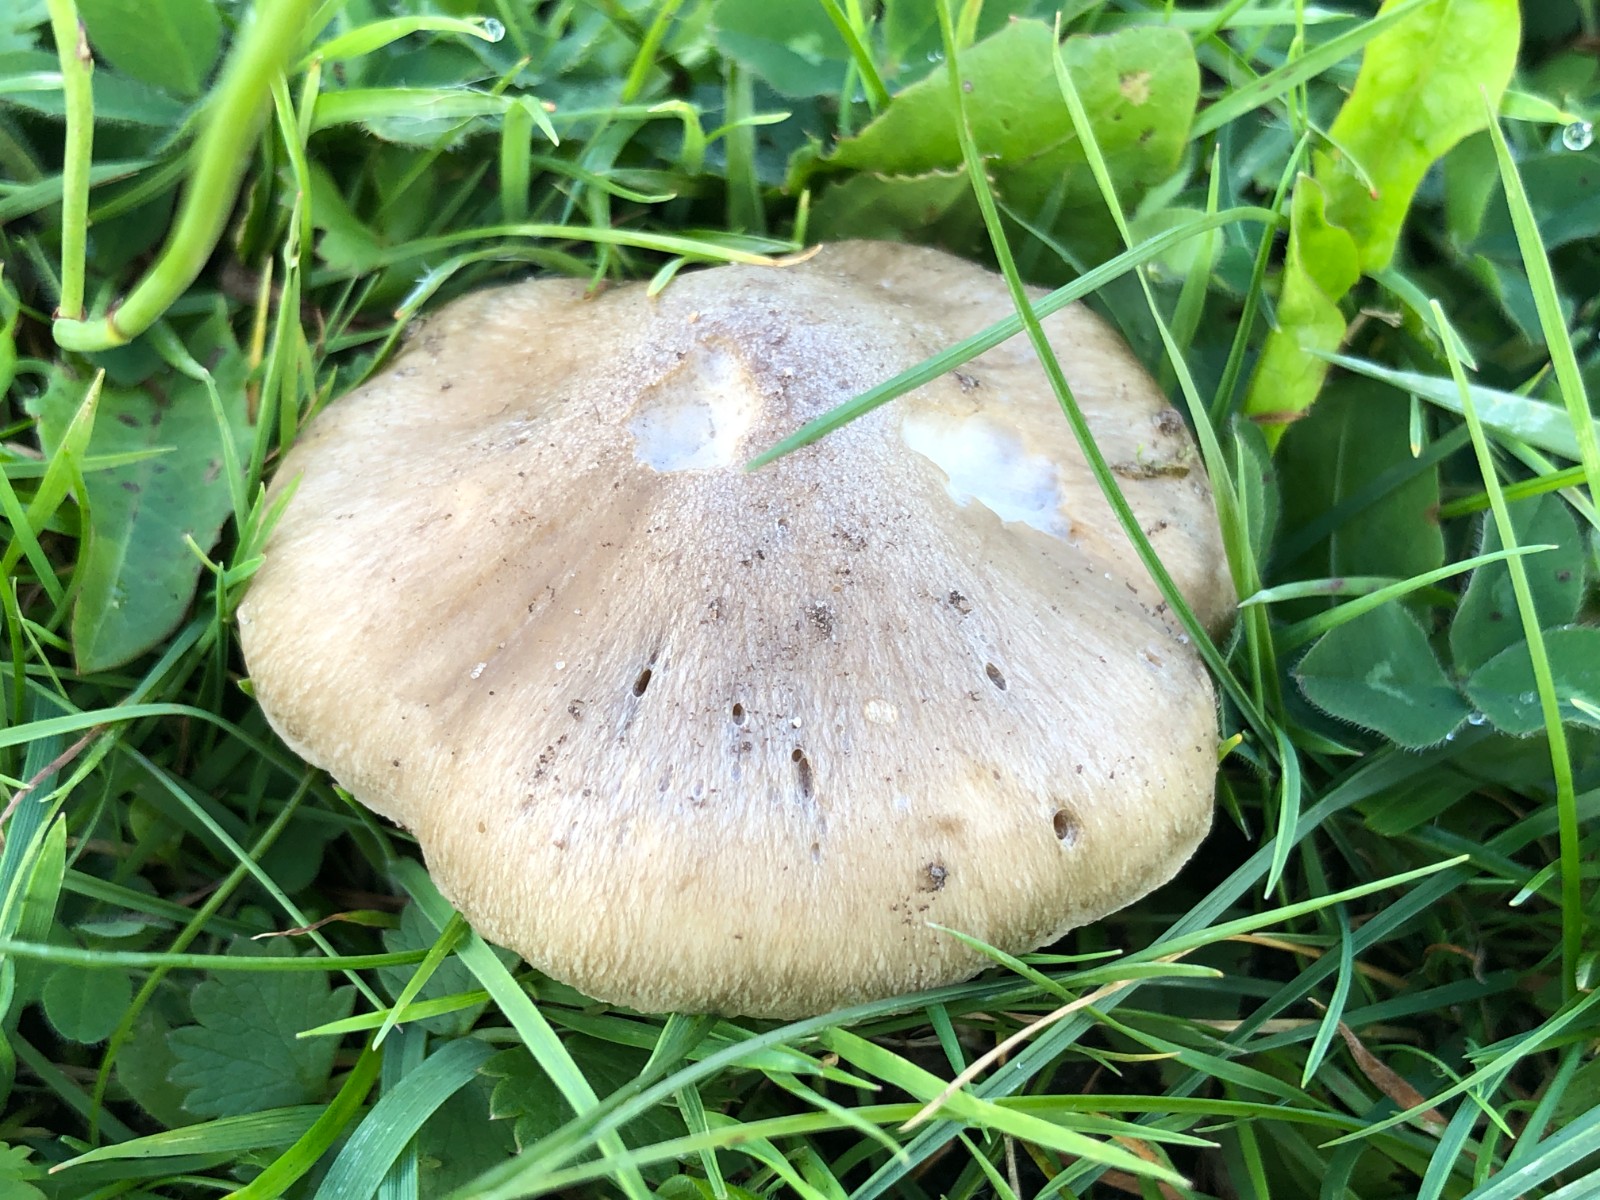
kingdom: Fungi
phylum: Basidiomycota
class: Agaricomycetes
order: Agaricales
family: Entolomataceae
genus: Entoloma
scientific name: Entoloma prunuloides
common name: mel-rødblad
